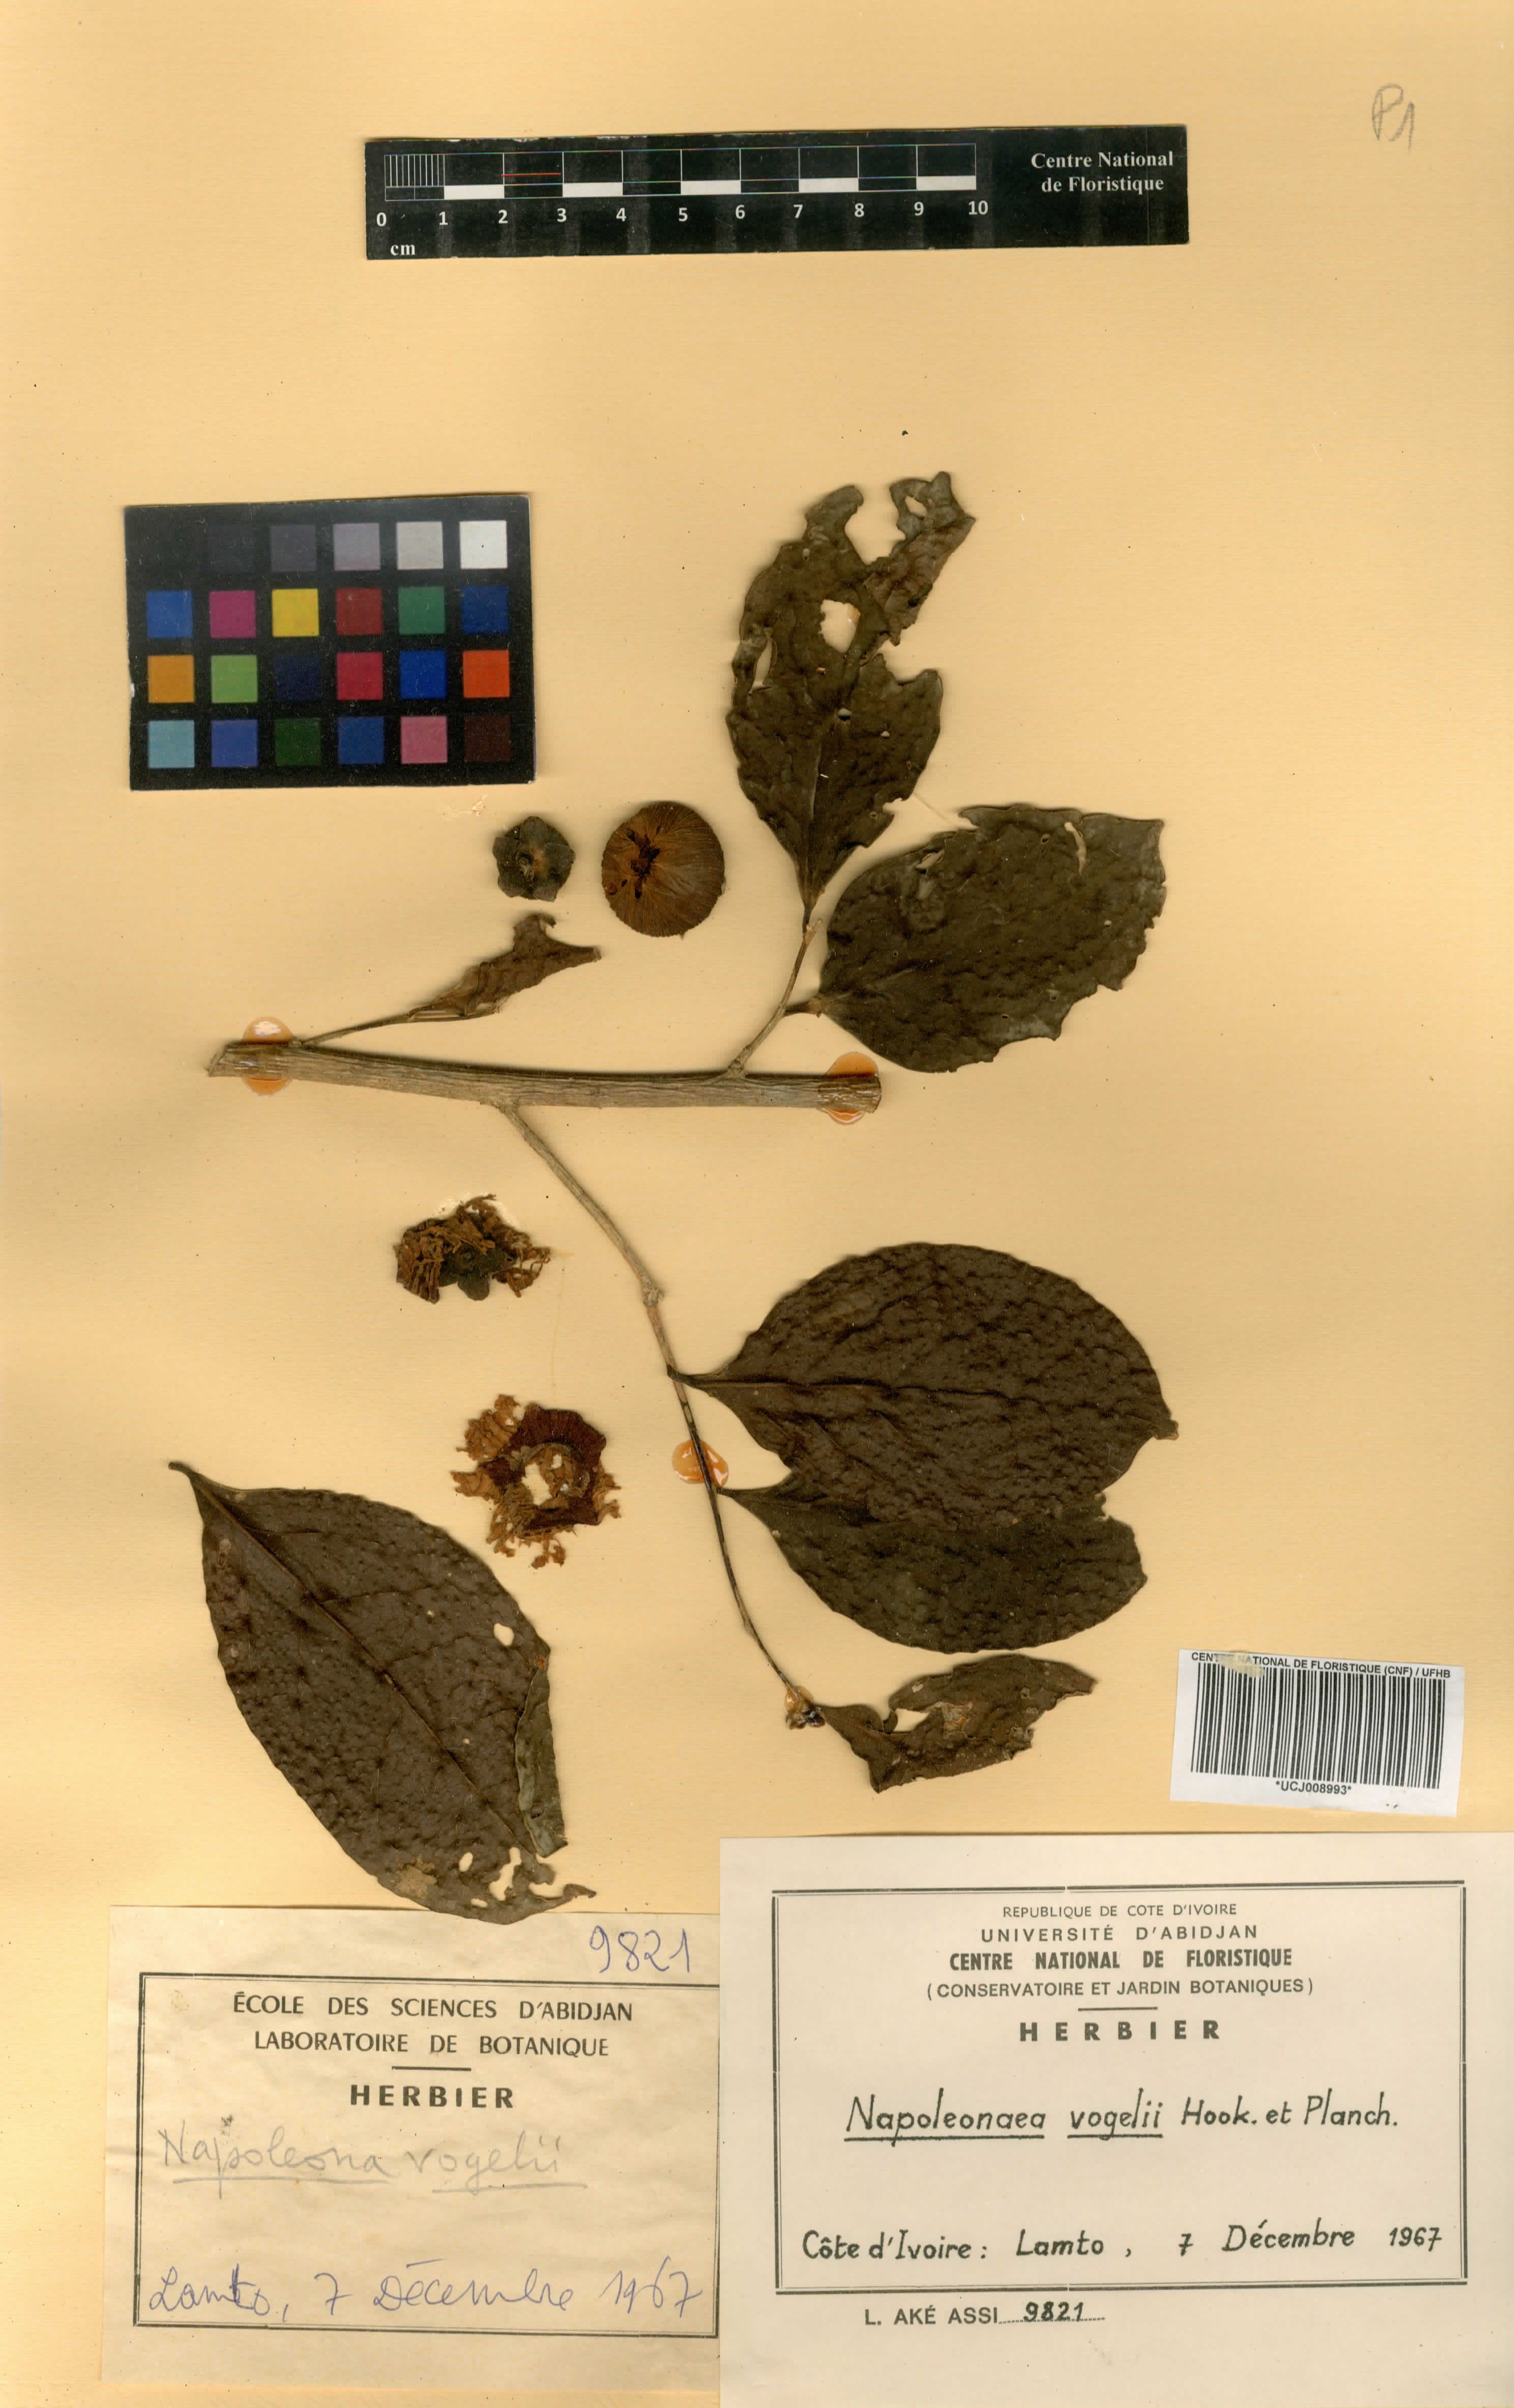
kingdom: Plantae
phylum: Tracheophyta
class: Magnoliopsida
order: Ericales
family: Lecythidaceae
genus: Napoleonaea
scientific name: Napoleonaea vogelii
